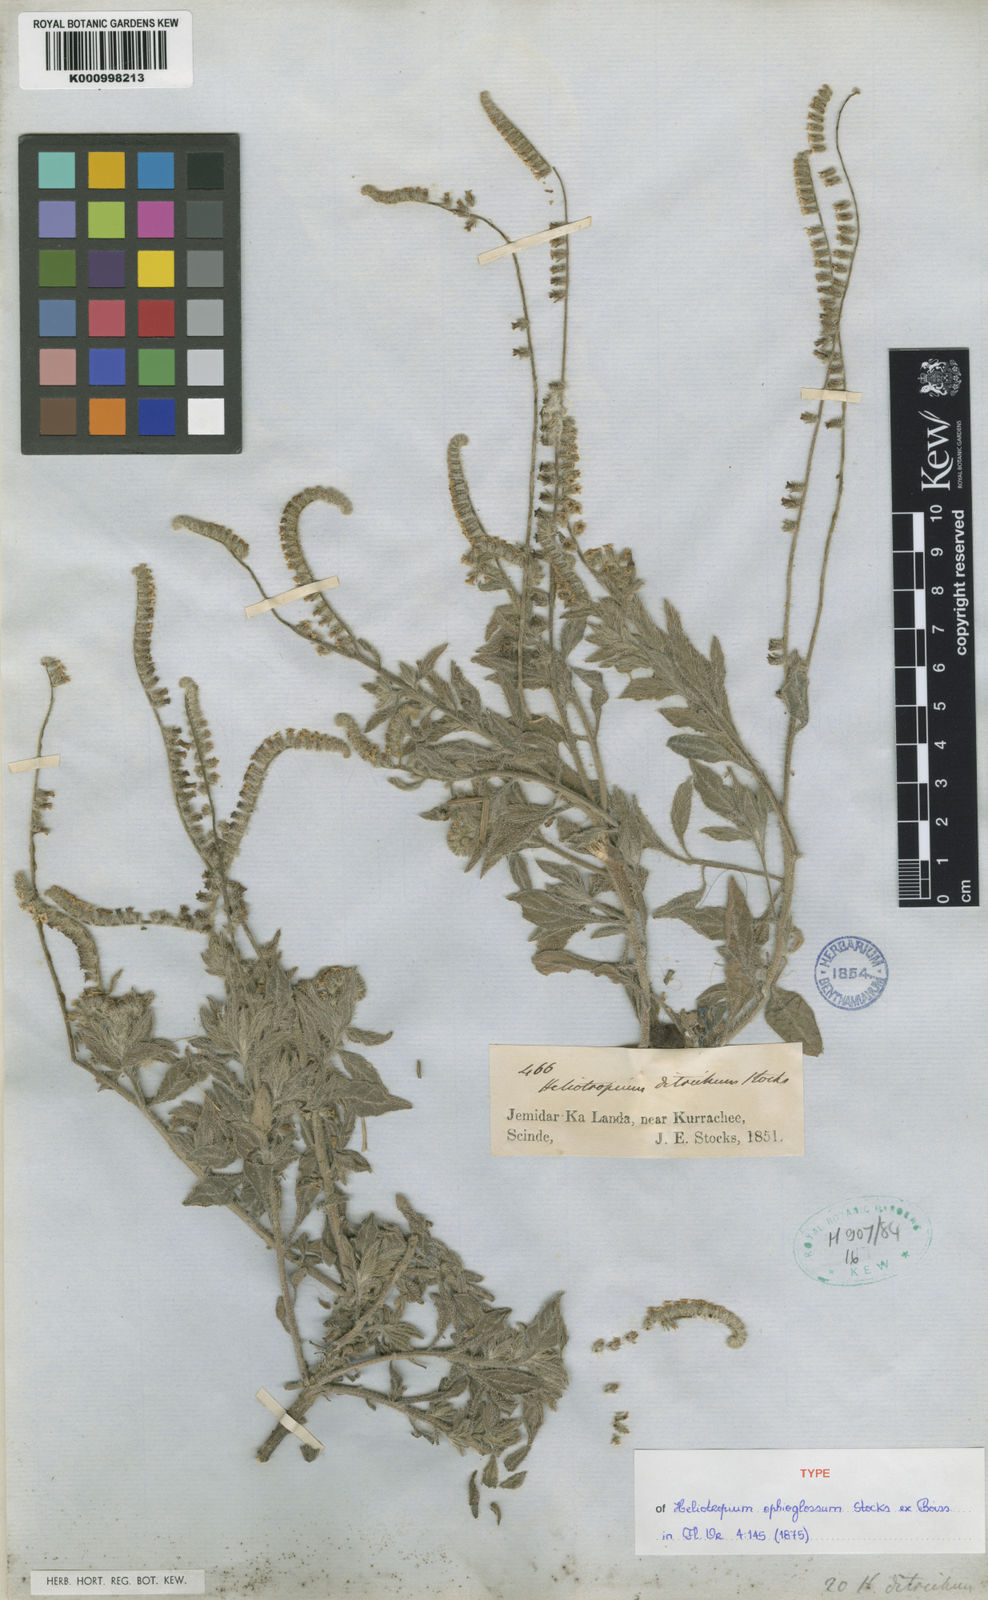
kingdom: Plantae
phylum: Tracheophyta
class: Magnoliopsida
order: Boraginales
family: Heliotropiaceae
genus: Heliotropium
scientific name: Heliotropium ophioglossum
